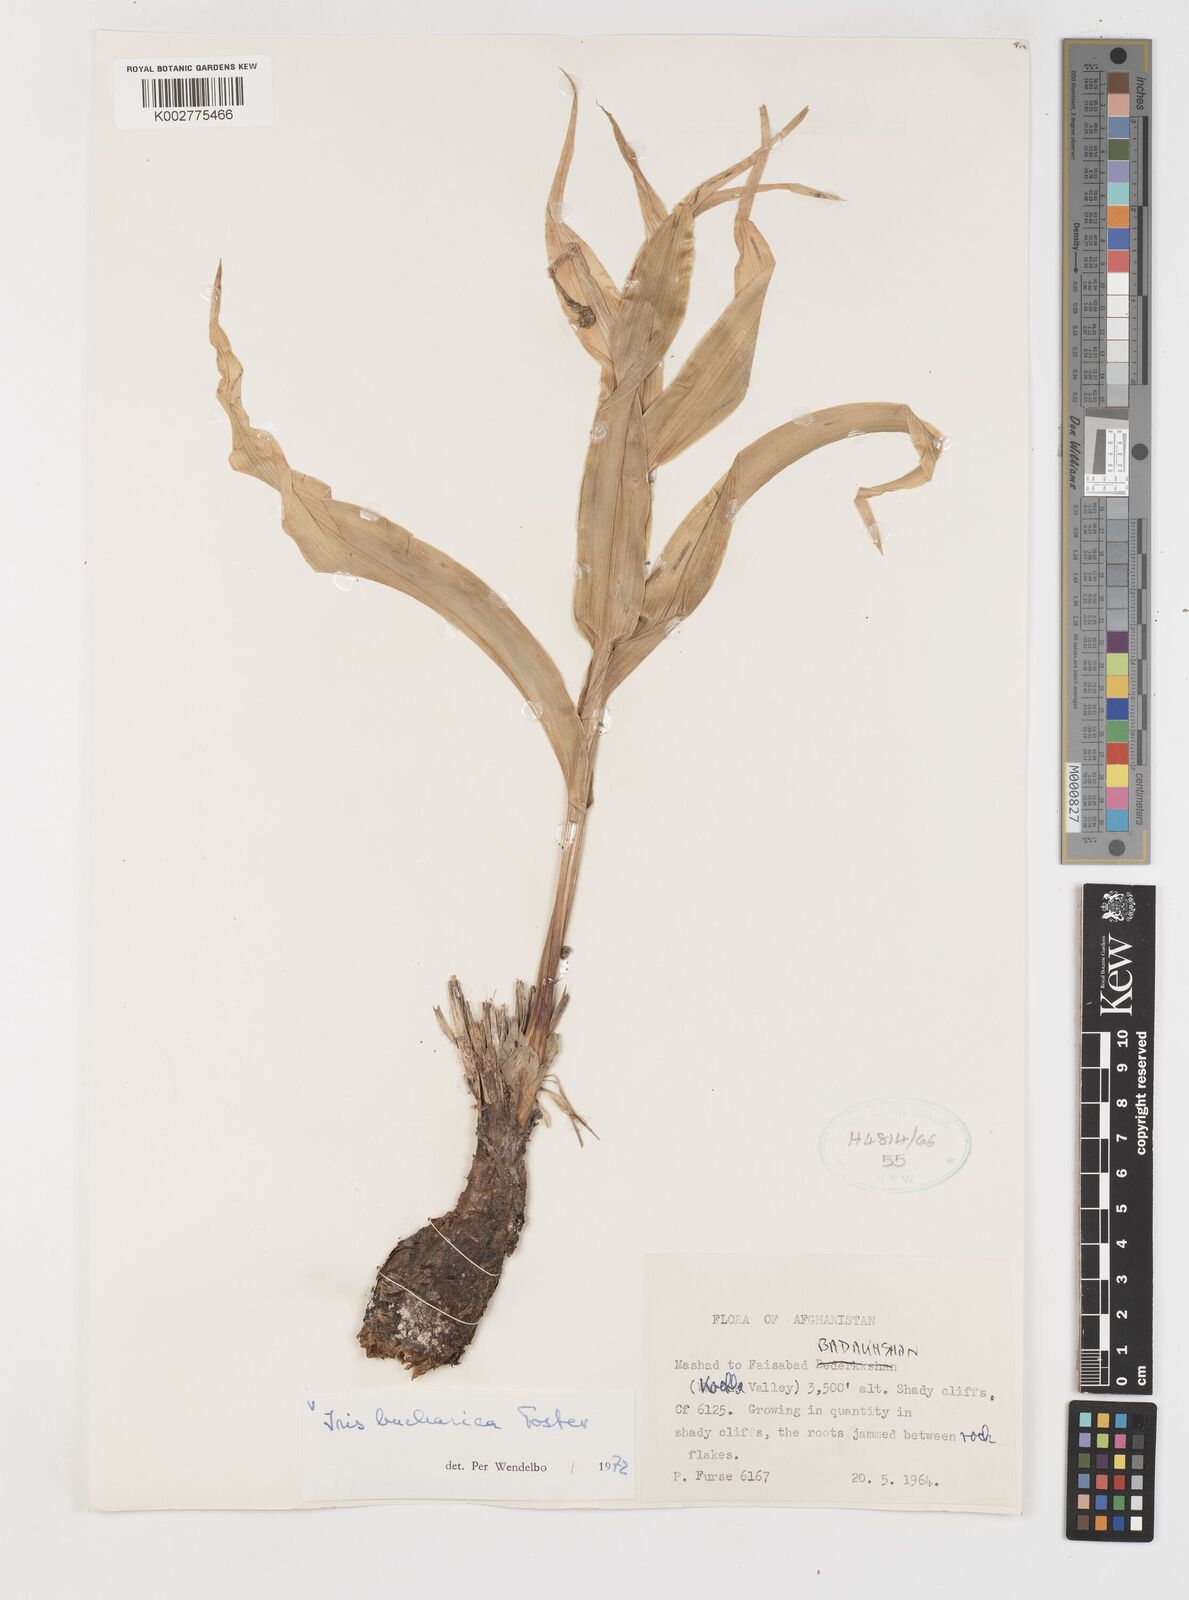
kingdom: Plantae
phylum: Tracheophyta
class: Liliopsida
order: Asparagales
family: Iridaceae
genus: Iris
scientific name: Iris bucharica
